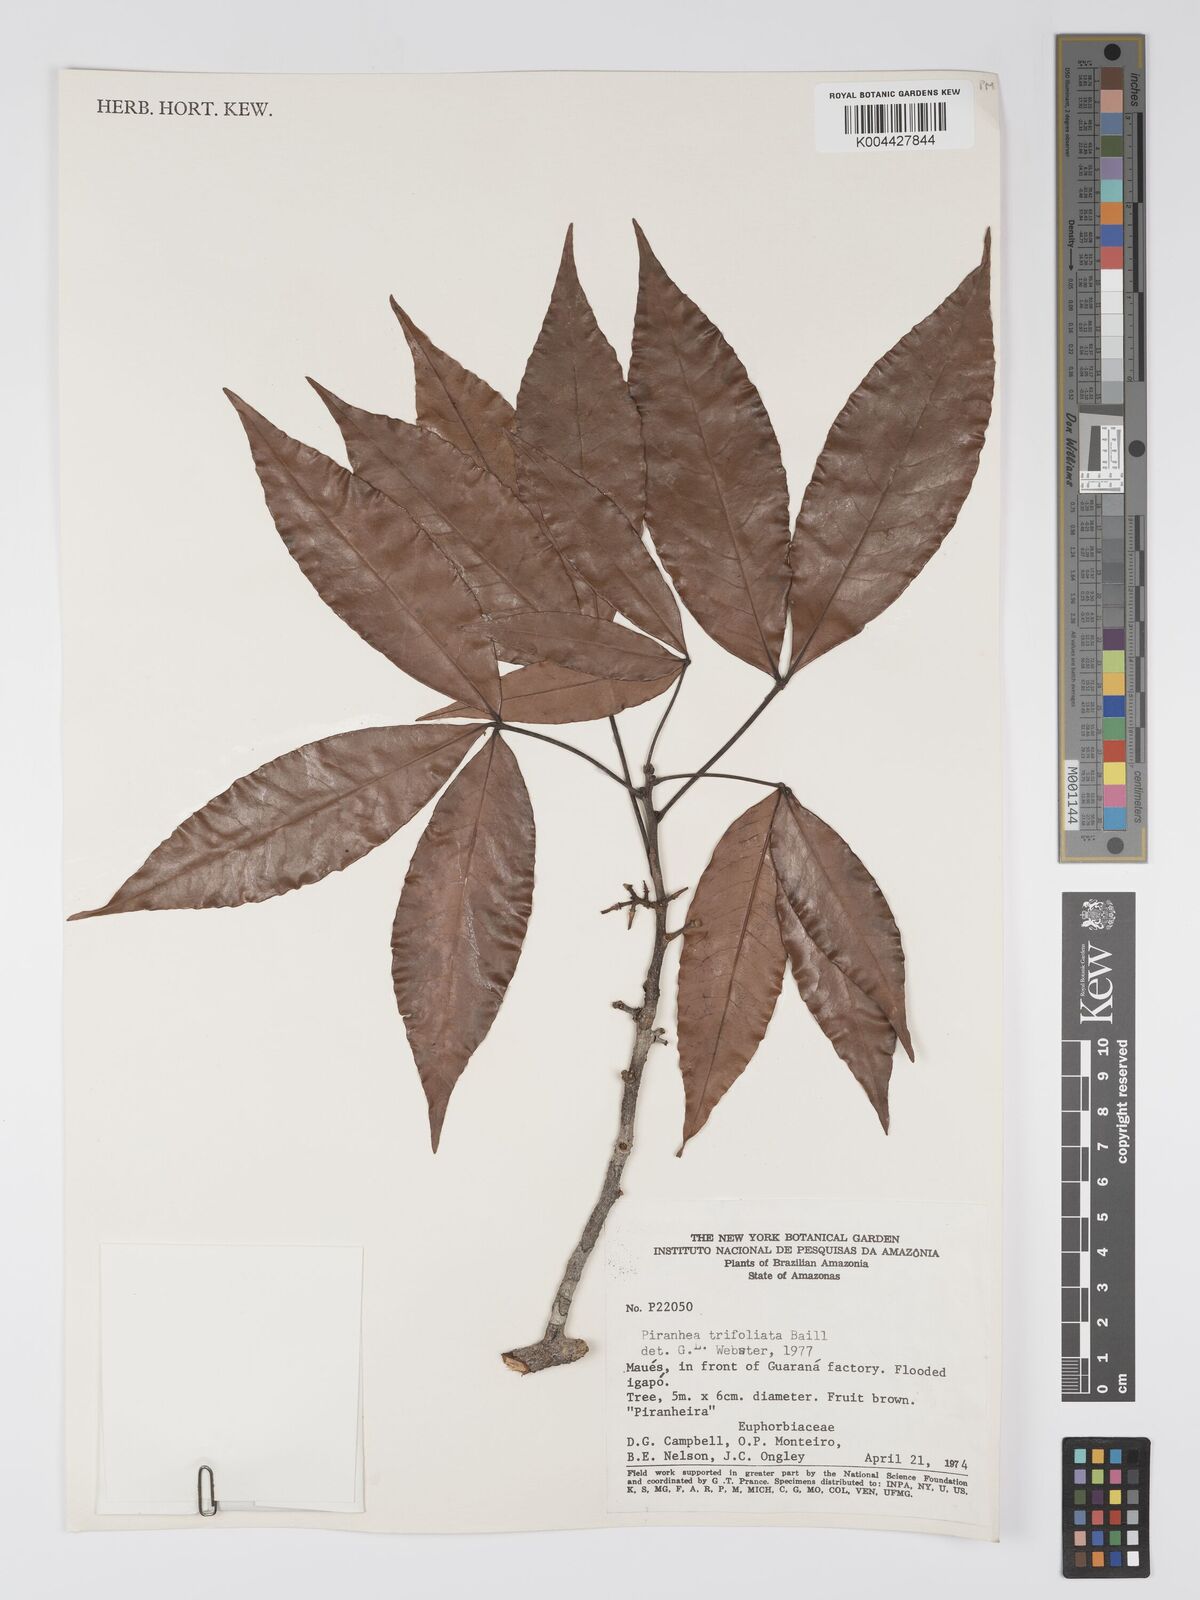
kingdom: Plantae
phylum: Tracheophyta
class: Magnoliopsida
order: Malpighiales
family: Picrodendraceae
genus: Piranhea
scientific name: Piranhea trifoliolata
